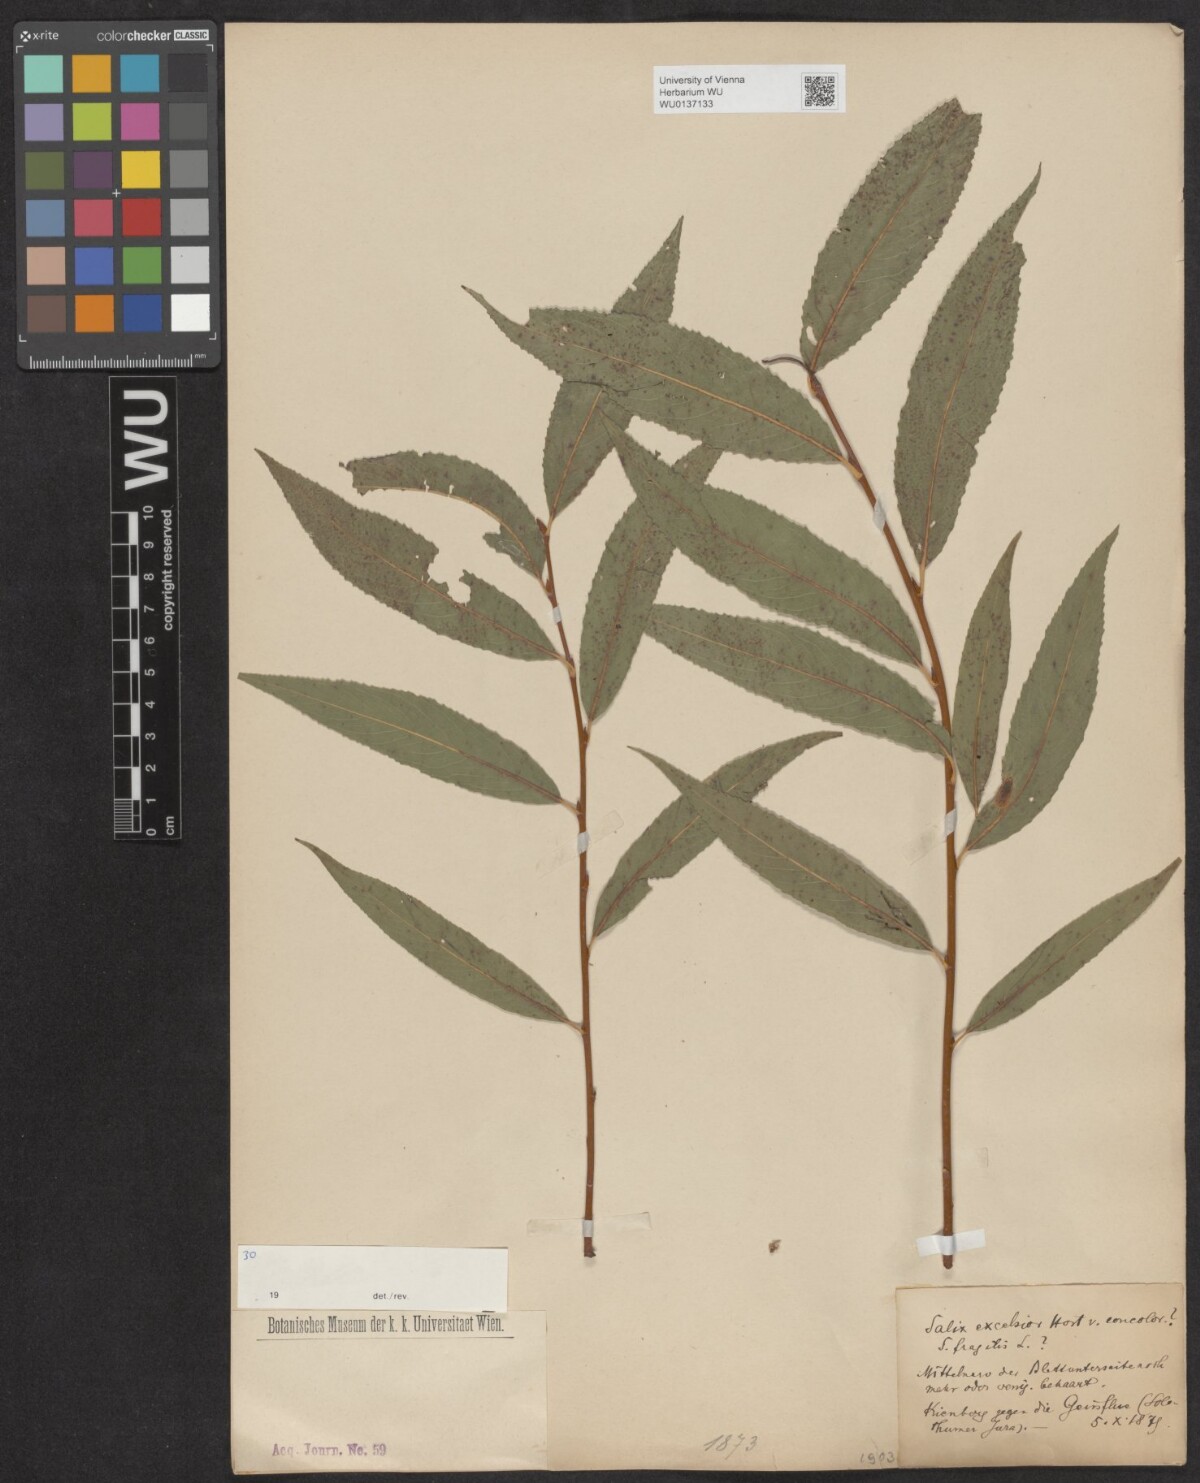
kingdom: Plantae
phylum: Tracheophyta
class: Magnoliopsida
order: Malpighiales
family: Salicaceae
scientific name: Salicaceae
